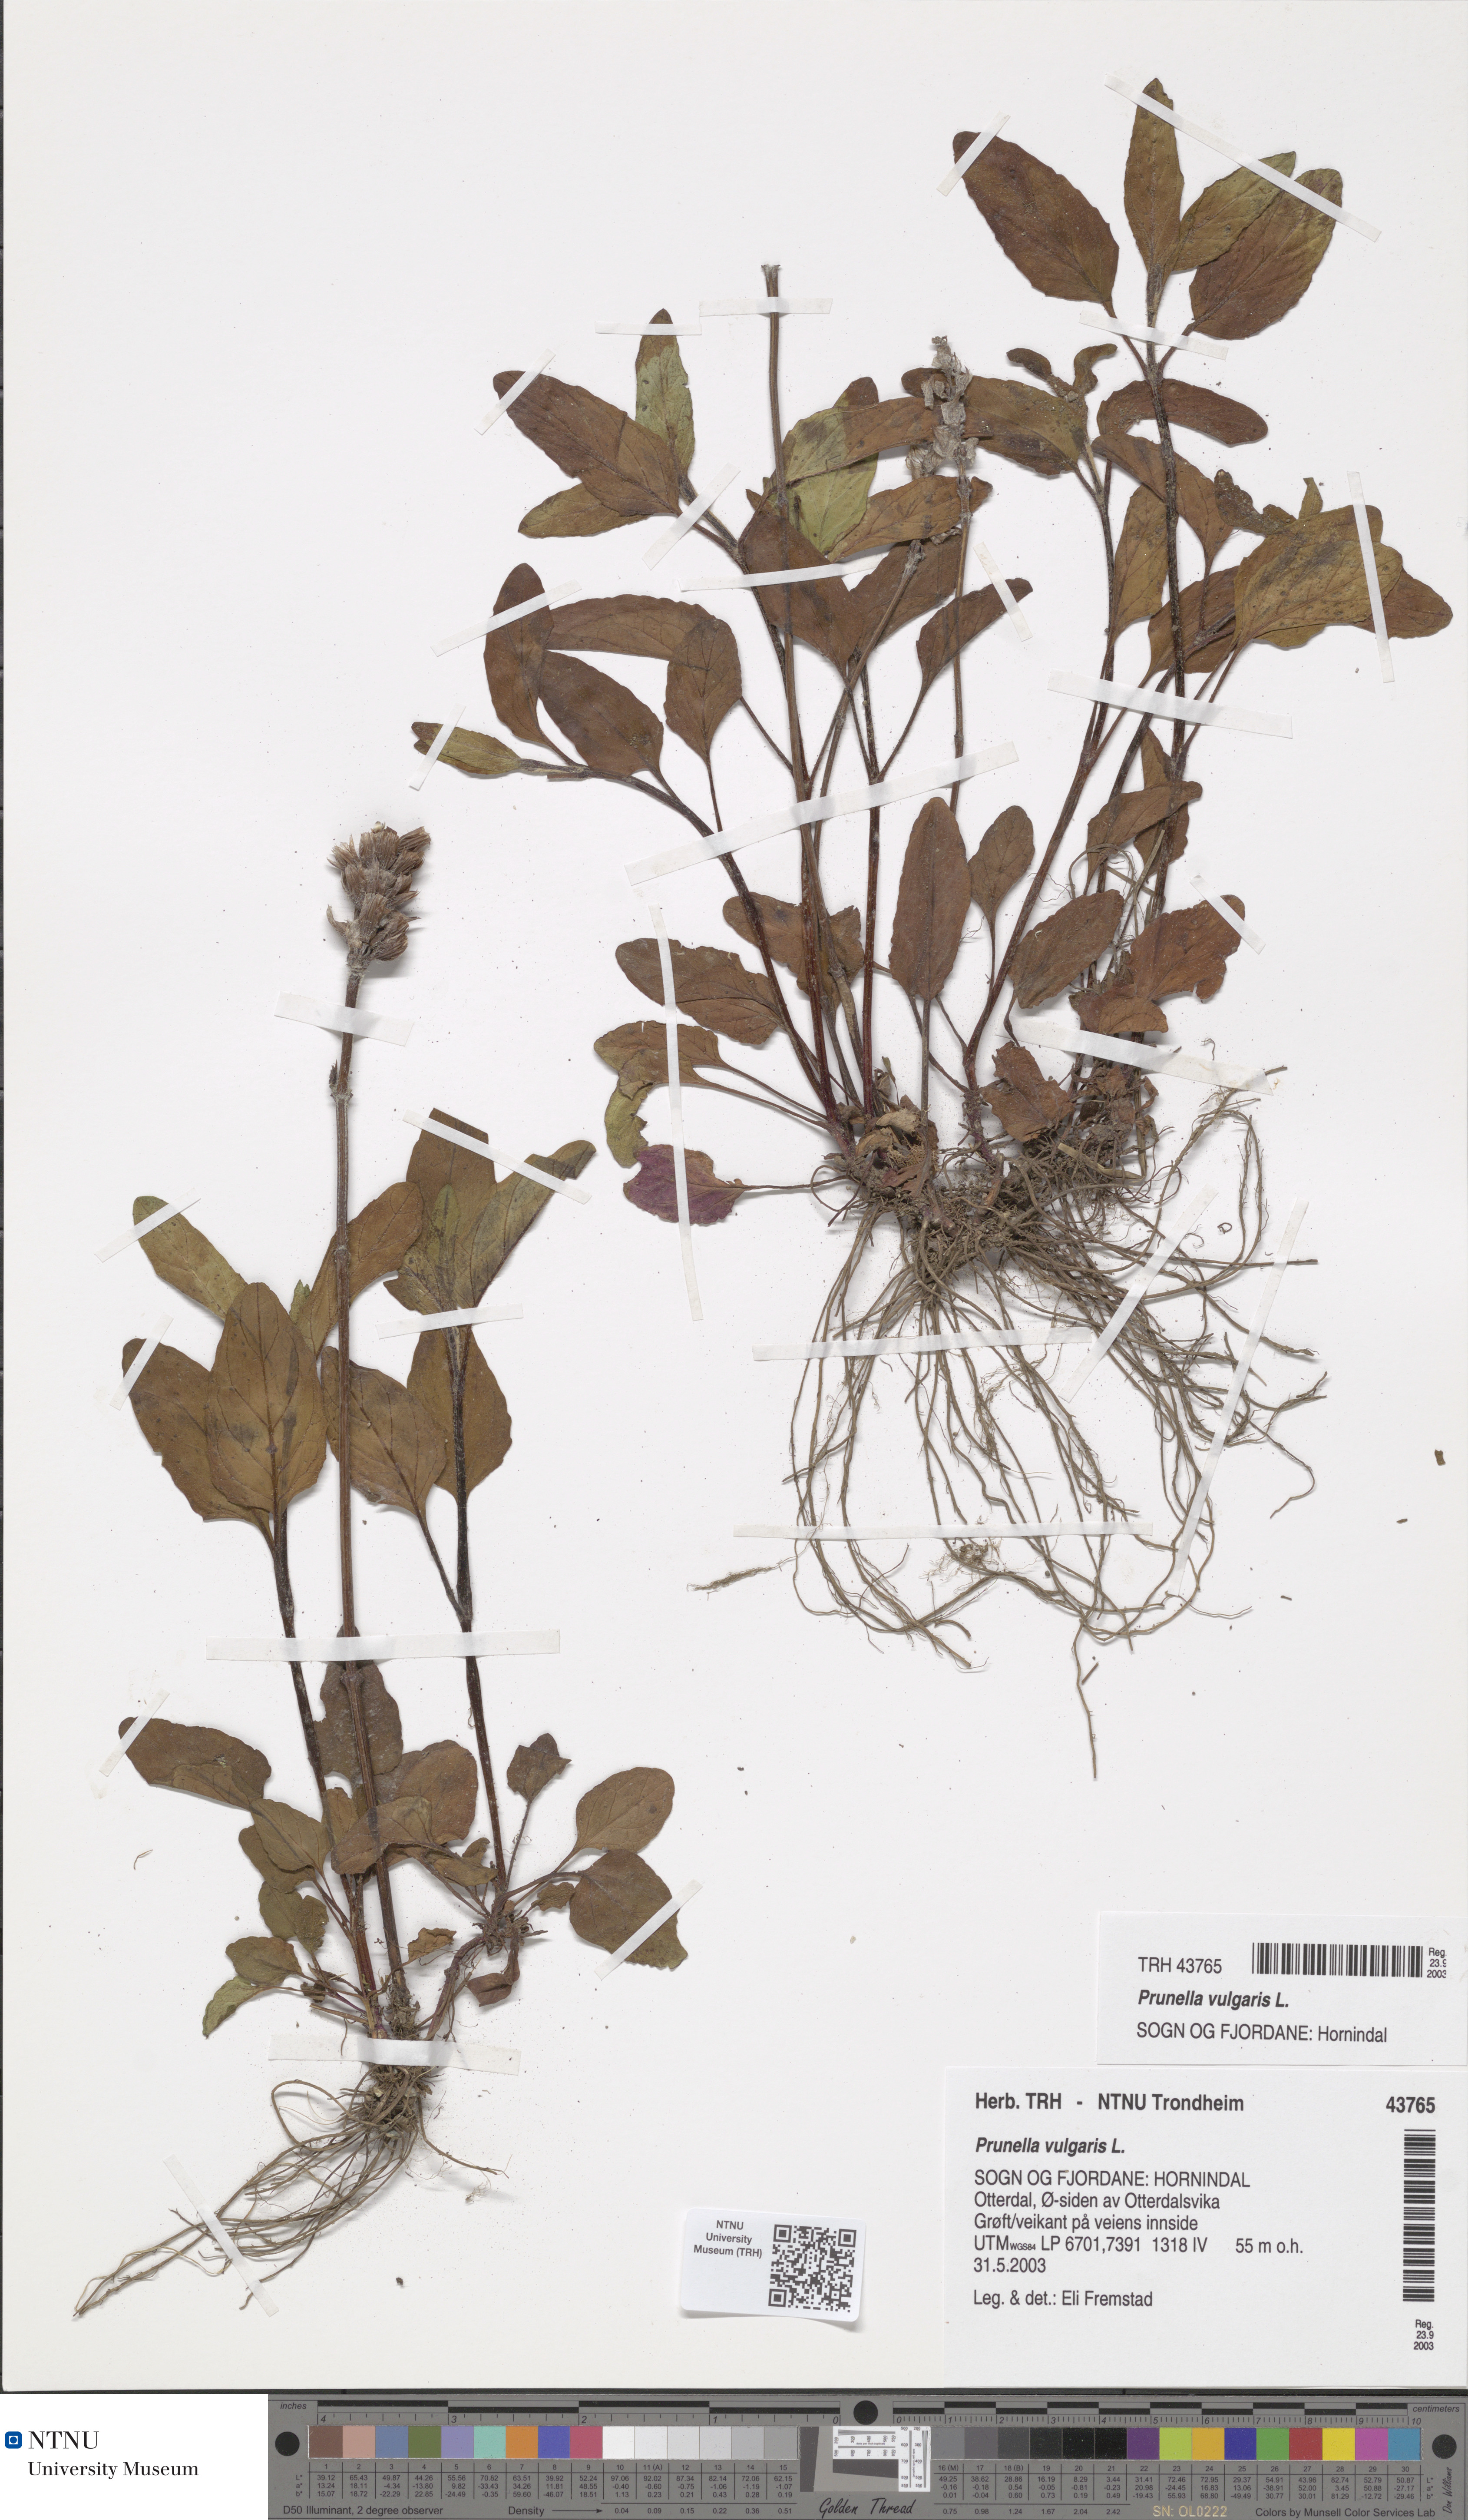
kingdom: Plantae
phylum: Tracheophyta
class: Magnoliopsida
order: Lamiales
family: Lamiaceae
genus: Prunella
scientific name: Prunella vulgaris
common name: Heal-all
